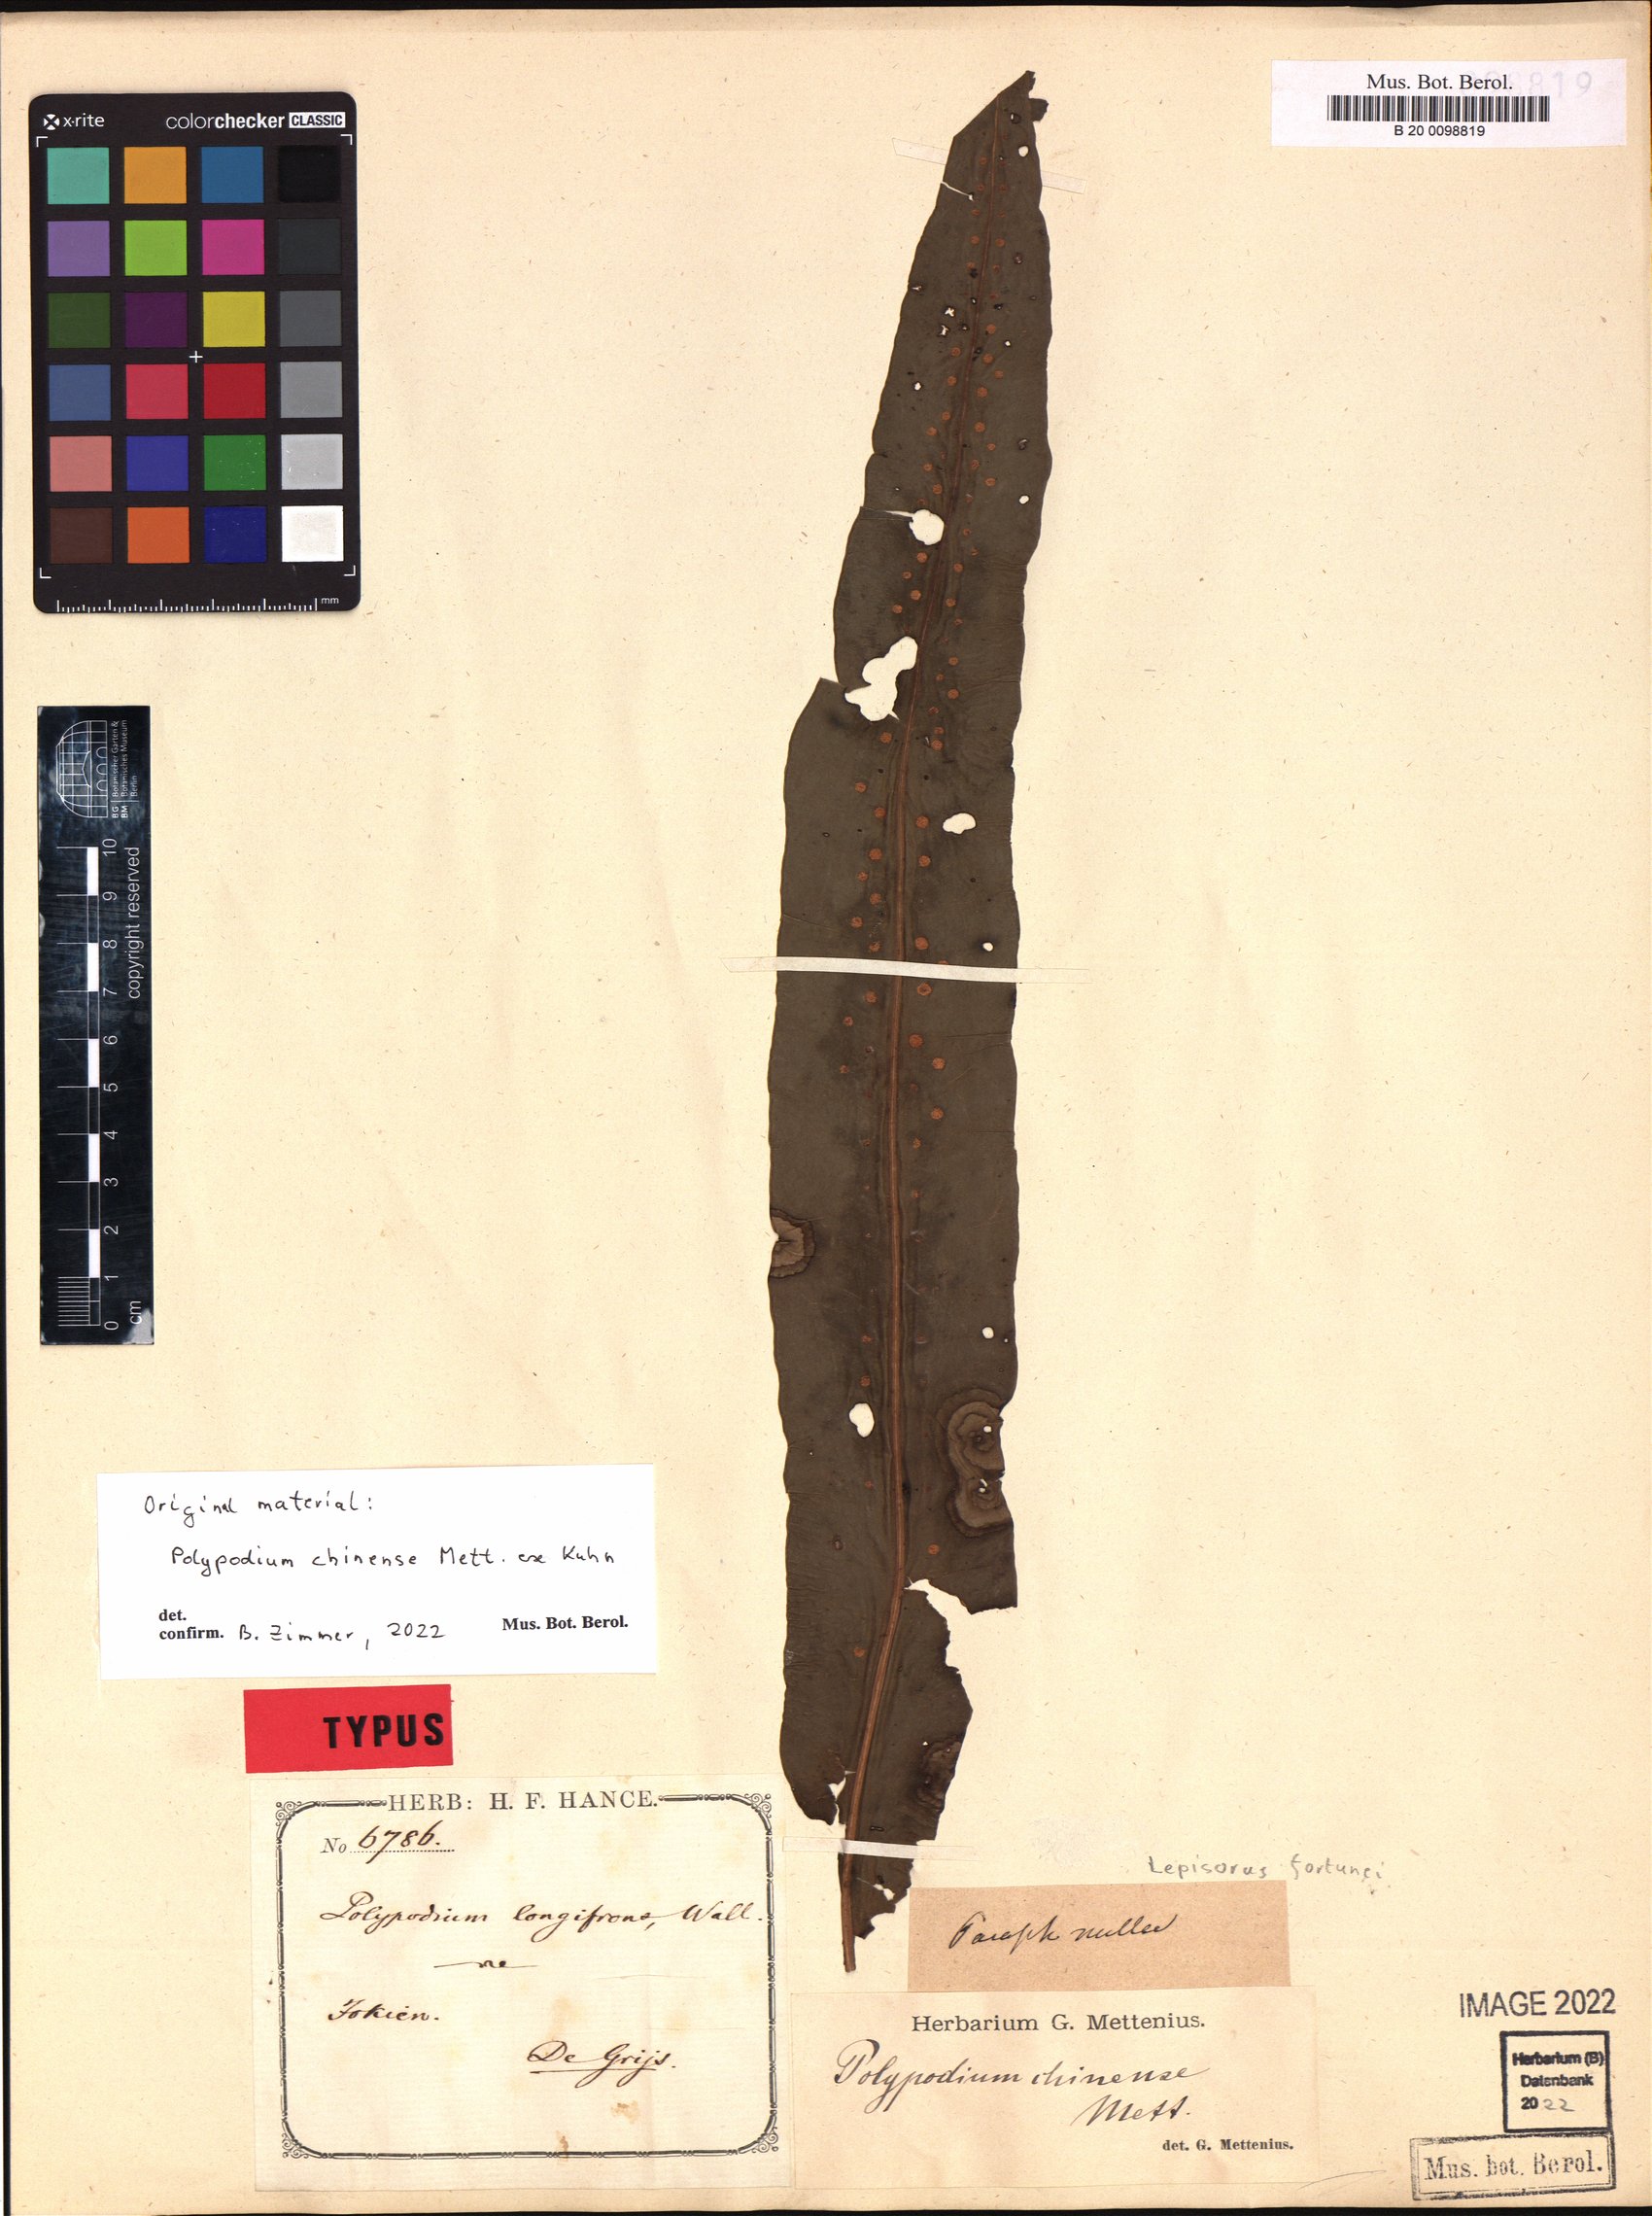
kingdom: Plantae
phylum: Tracheophyta
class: Polypodiopsida
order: Polypodiales
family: Polypodiaceae
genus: Lepisorus
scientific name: Lepisorus fortuni
